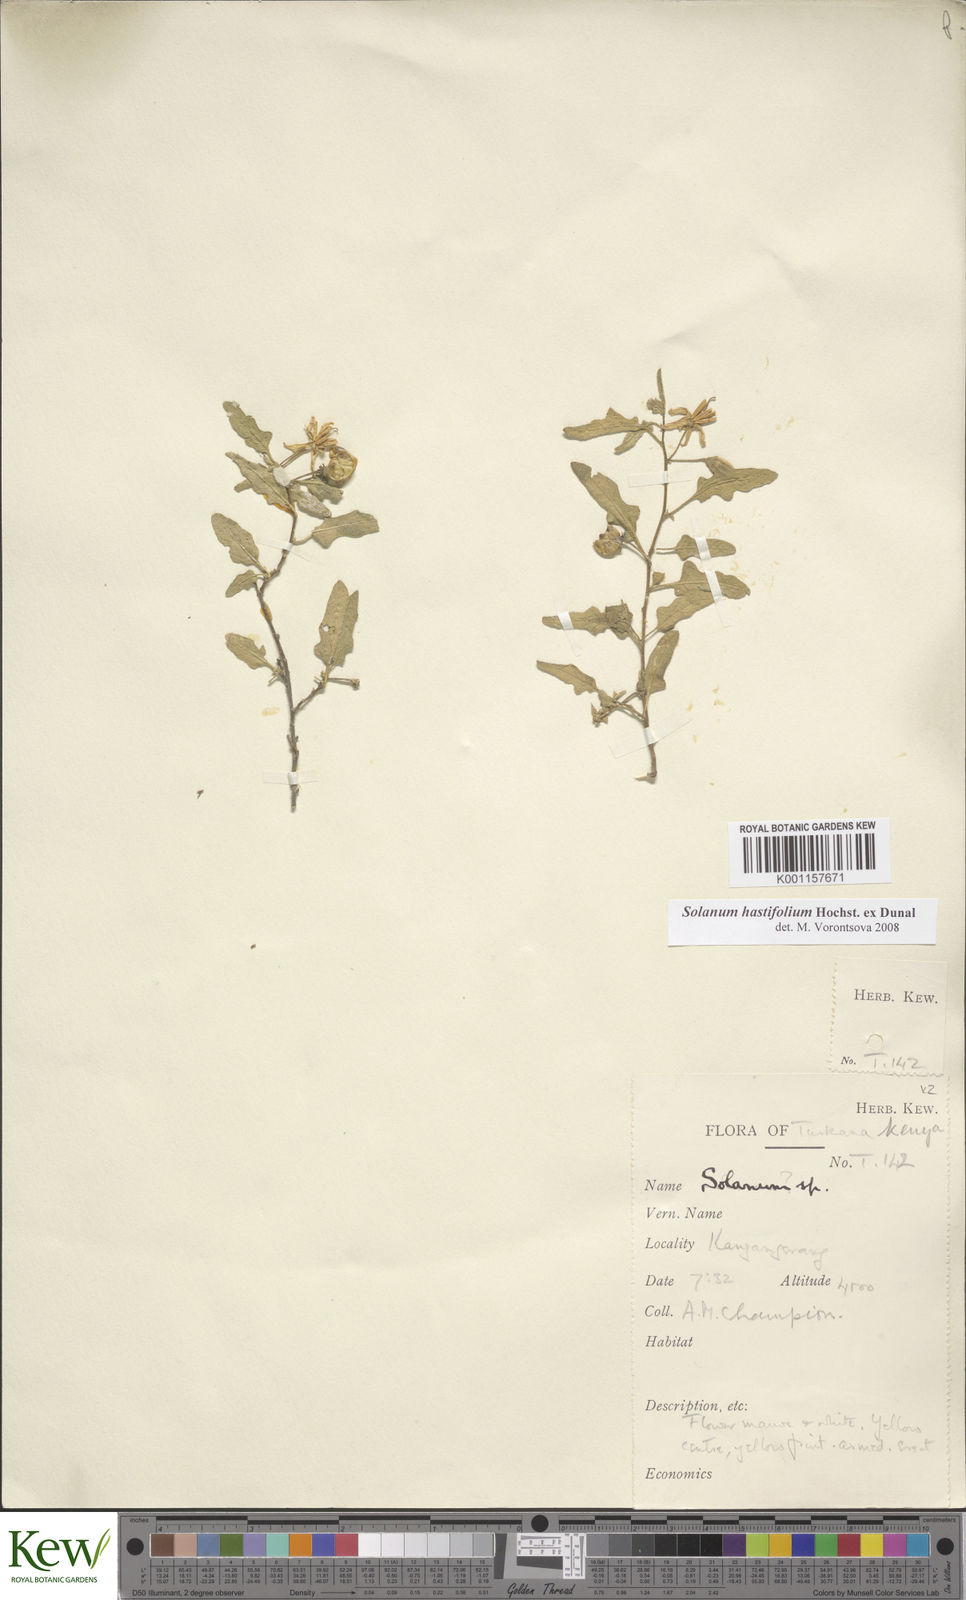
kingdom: Plantae
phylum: Tracheophyta
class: Magnoliopsida
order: Solanales
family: Solanaceae
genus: Solanum
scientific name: Solanum hastifolium
